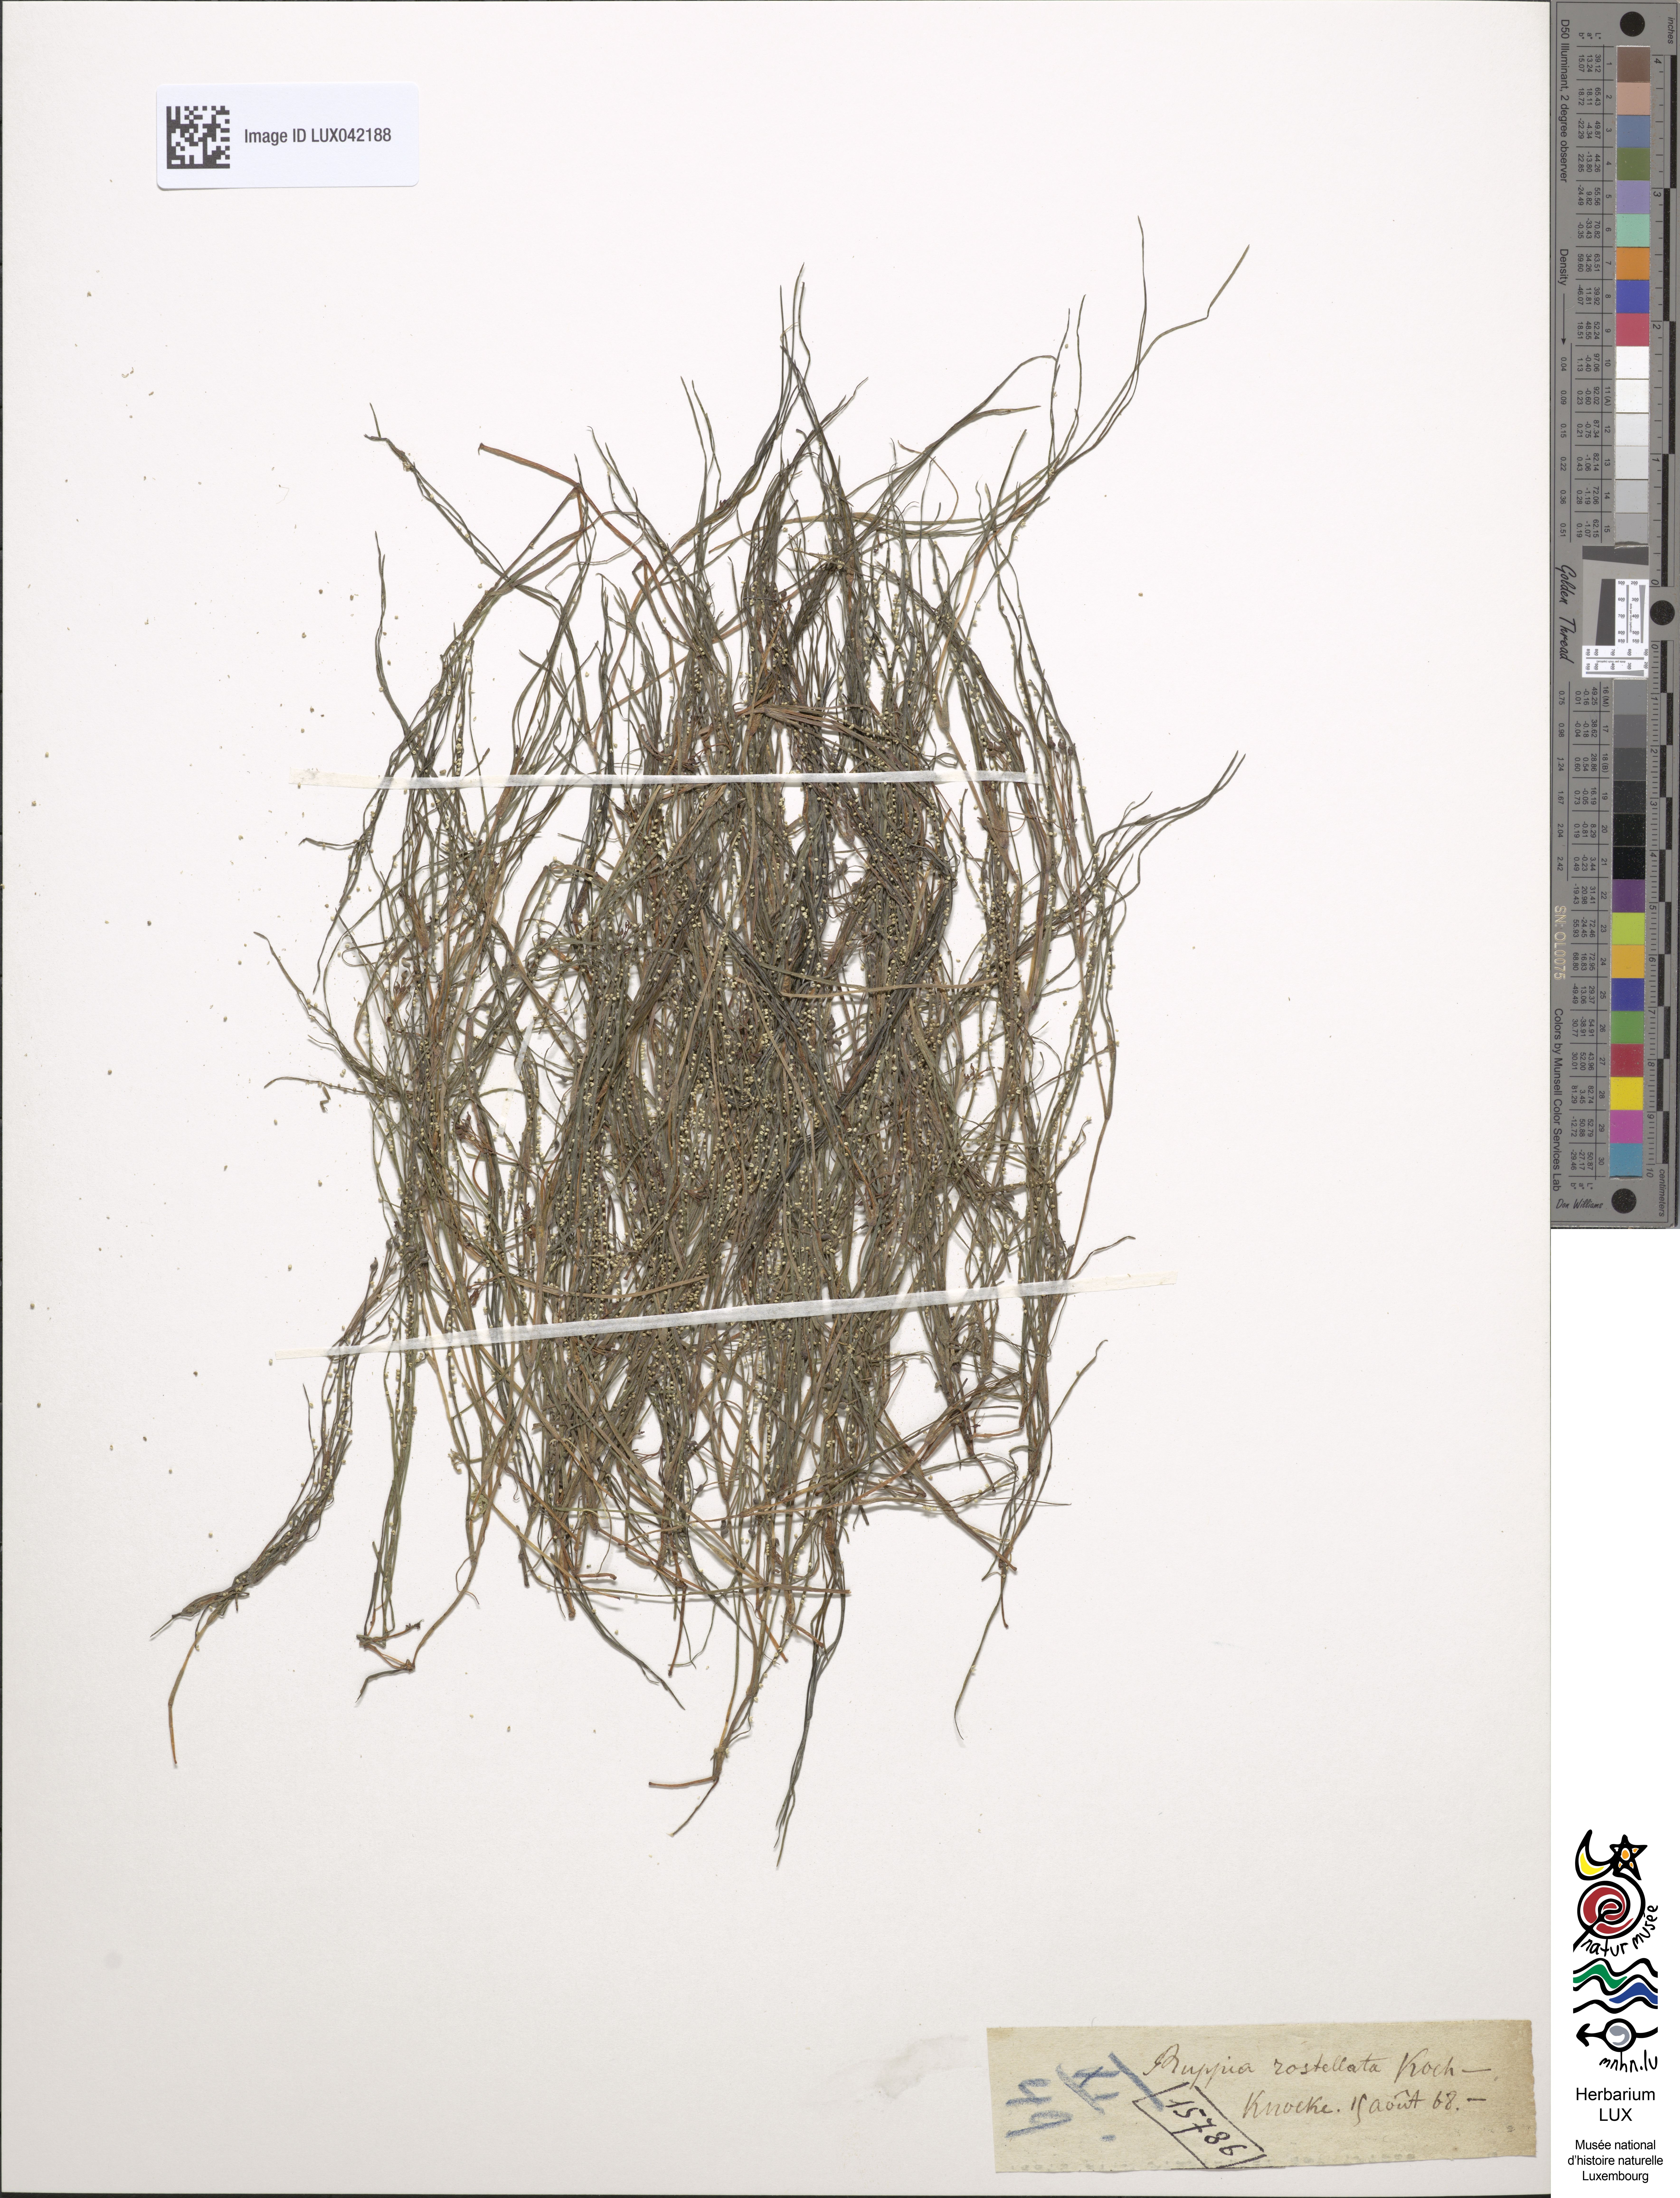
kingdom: Plantae
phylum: Tracheophyta
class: Liliopsida
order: Alismatales
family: Ruppiaceae
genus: Ruppia
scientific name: Ruppia maritima
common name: Beaked tasselweed
